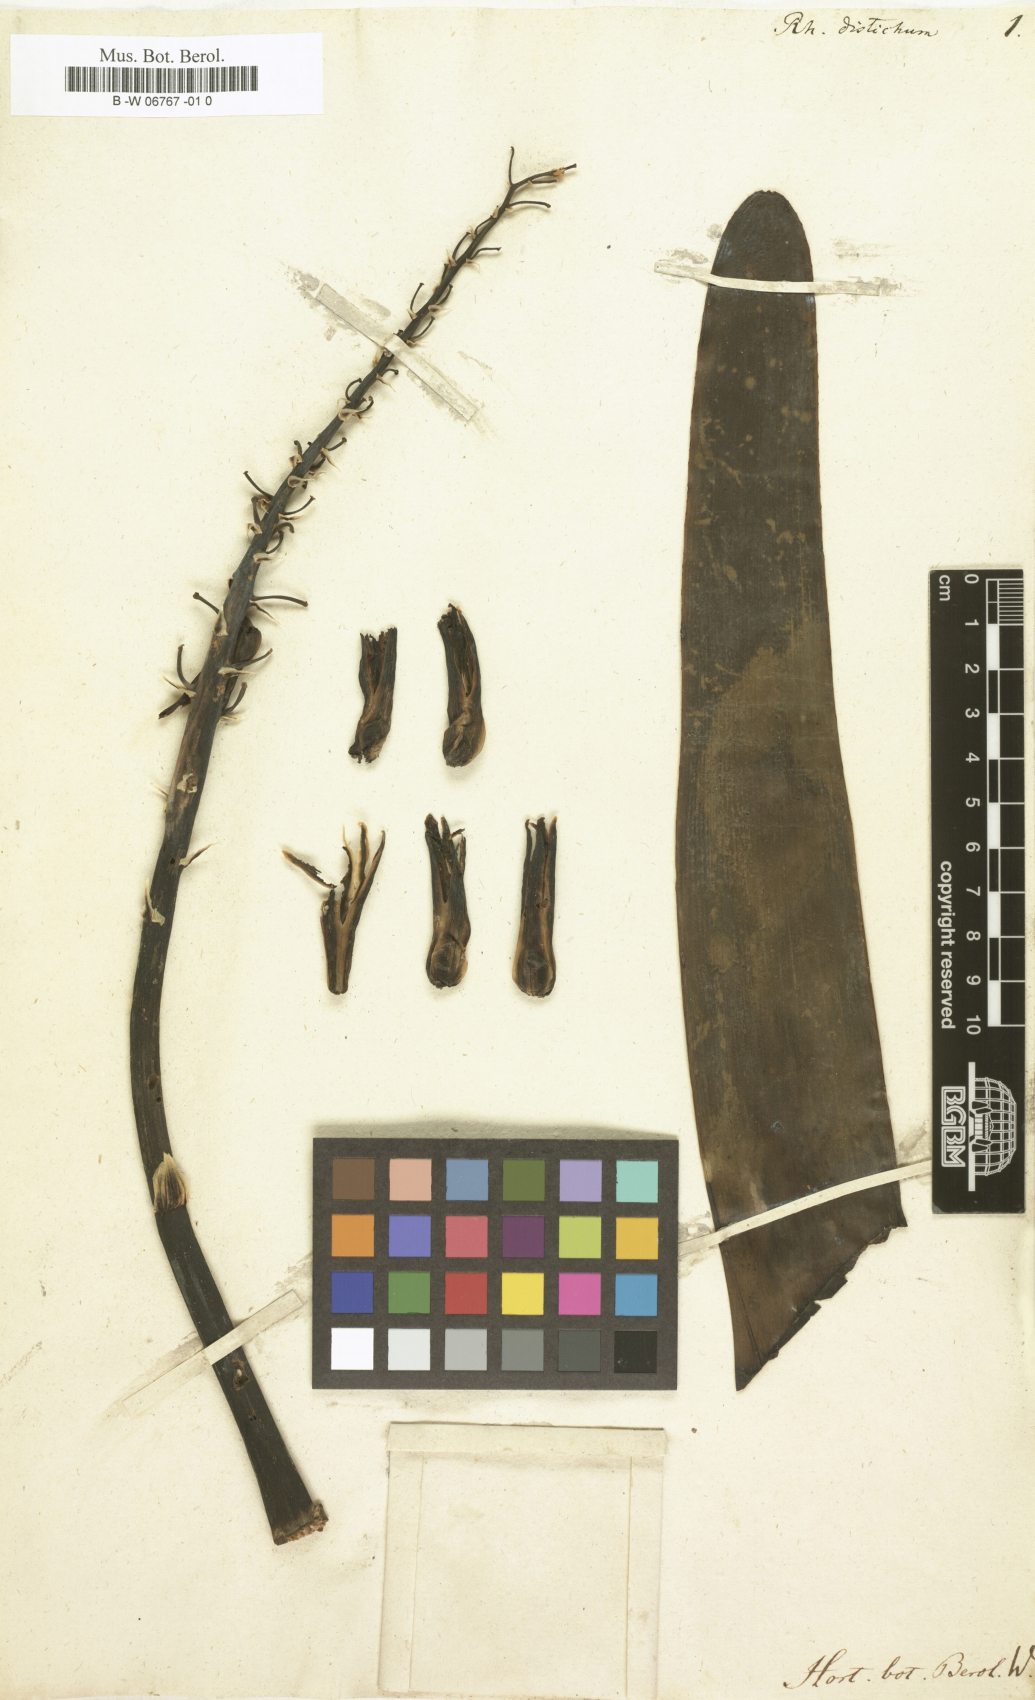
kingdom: Plantae
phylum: Tracheophyta
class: Liliopsida
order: Asparagales
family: Asphodelaceae
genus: Kumara
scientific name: Kumara plicatilis
